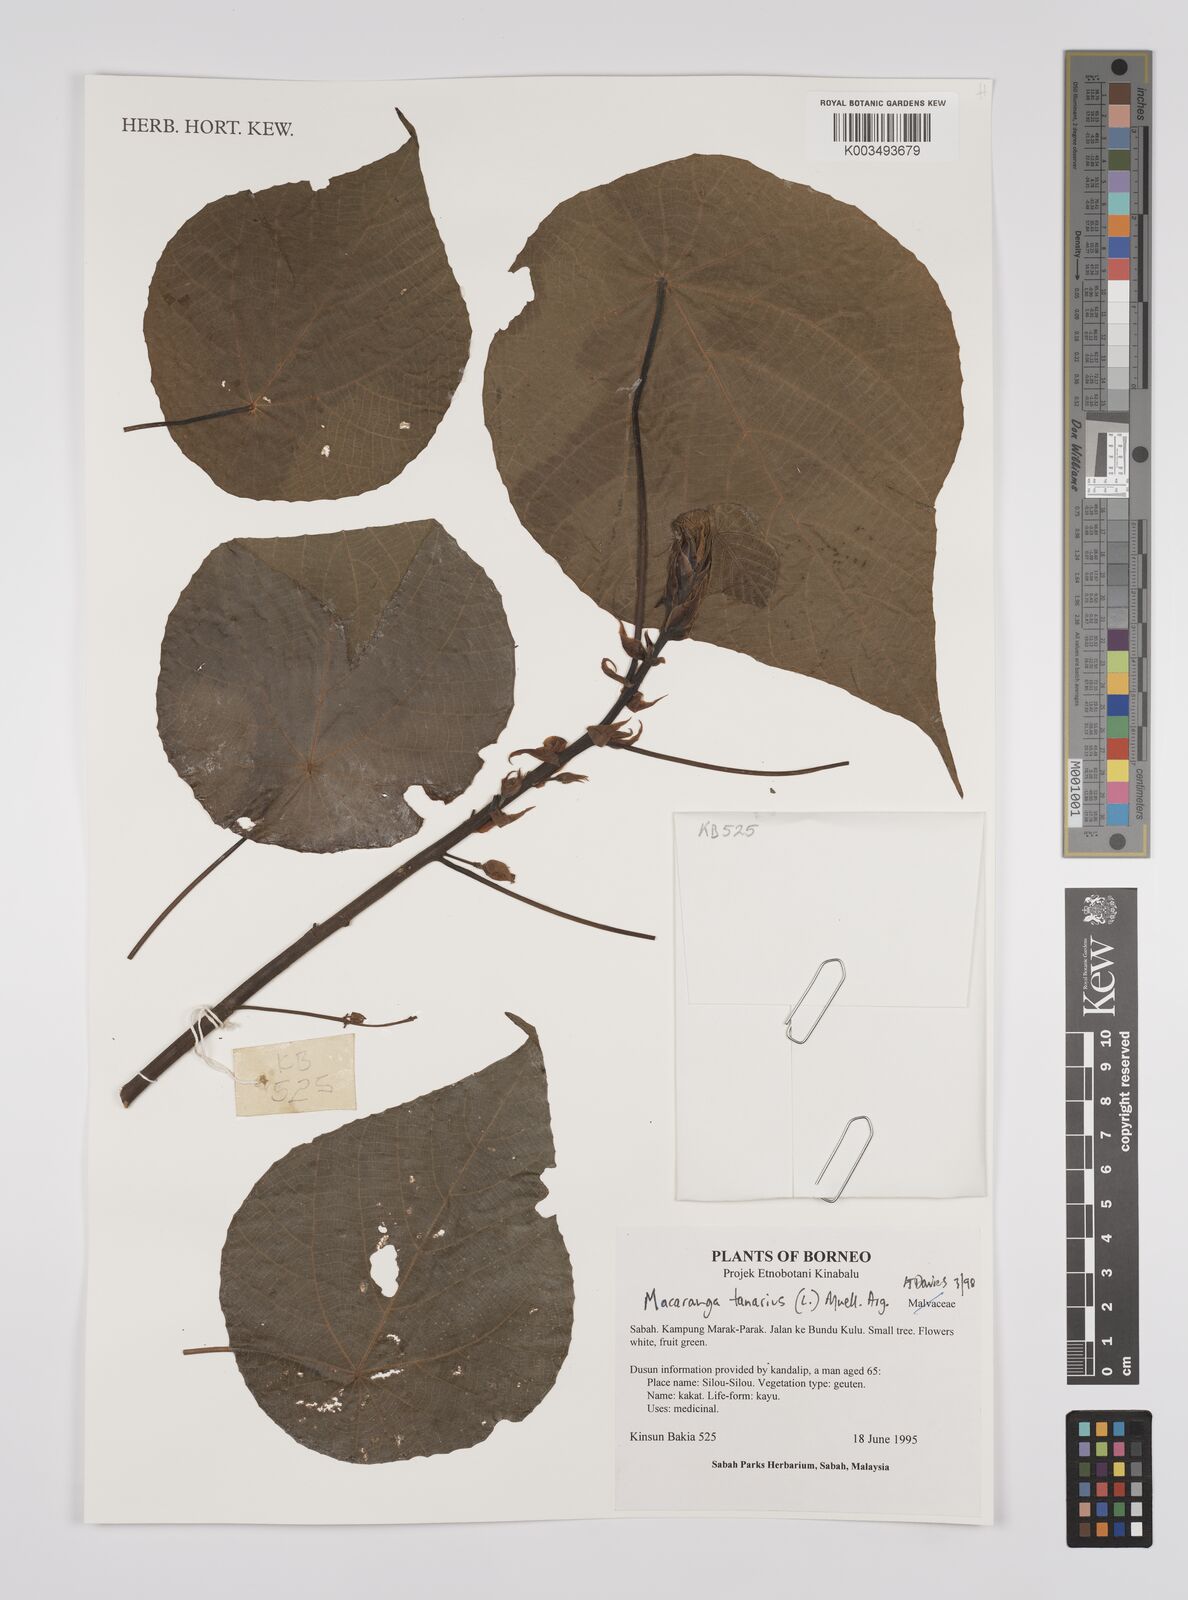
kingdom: Plantae
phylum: Tracheophyta
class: Magnoliopsida
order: Malpighiales
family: Euphorbiaceae
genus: Macaranga
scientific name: Macaranga tanarius
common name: Parasol leaf tree
